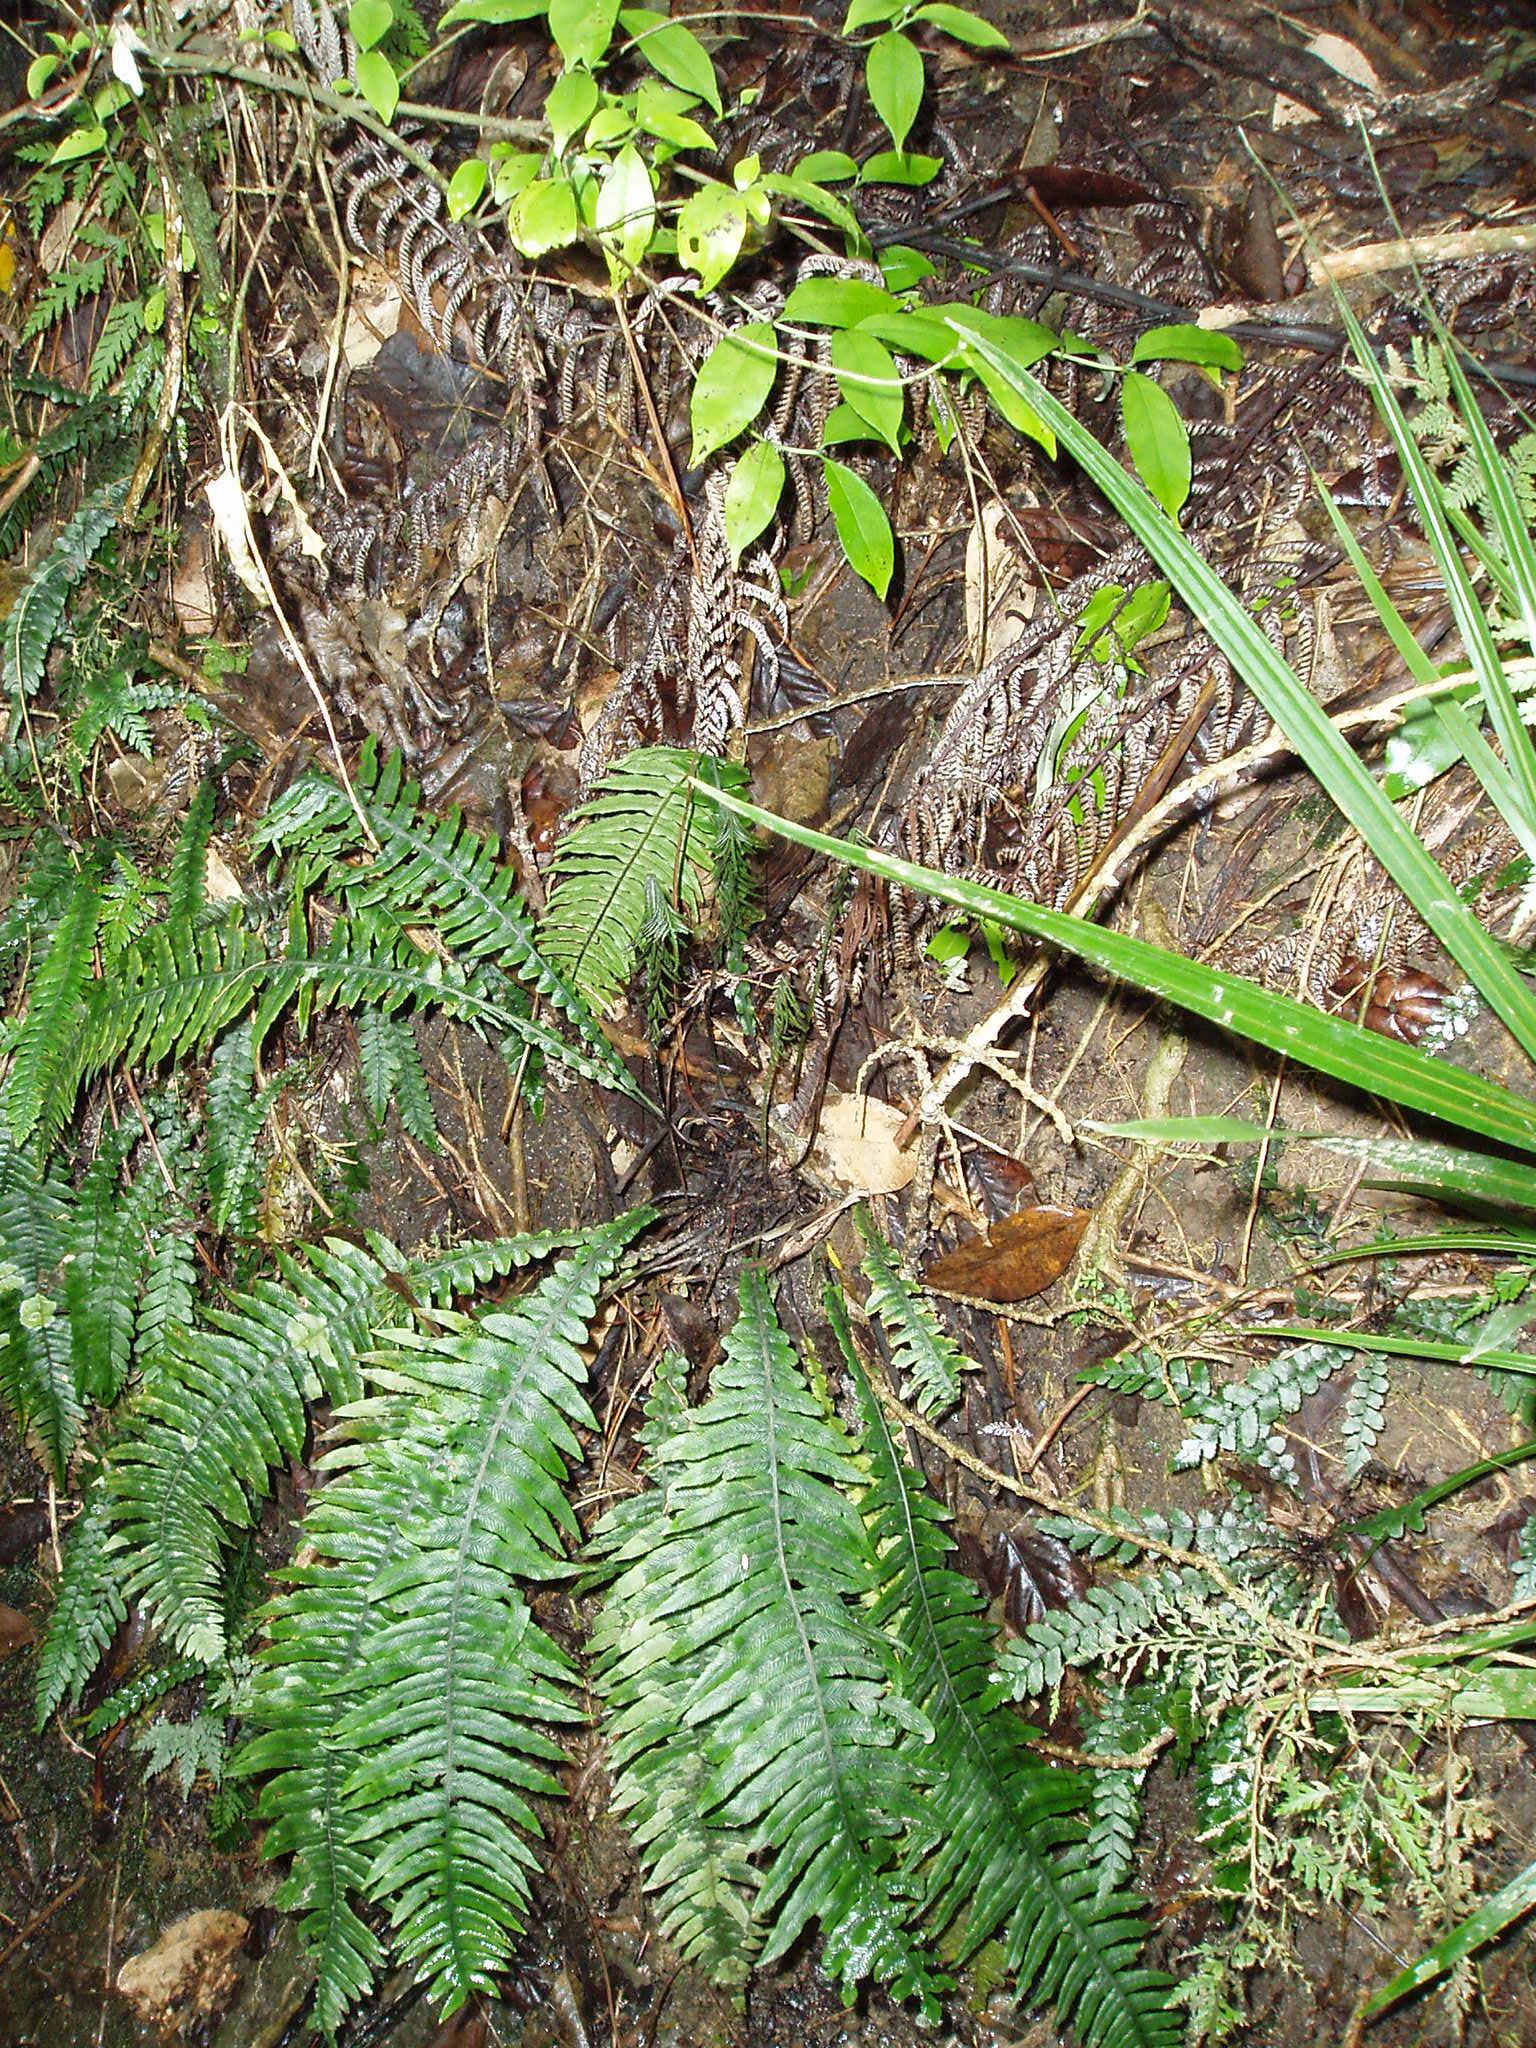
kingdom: Plantae
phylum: Tracheophyta
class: Polypodiopsida
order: Polypodiales
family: Blechnaceae
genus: Austroblechnum
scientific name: Austroblechnum norfolkianum
